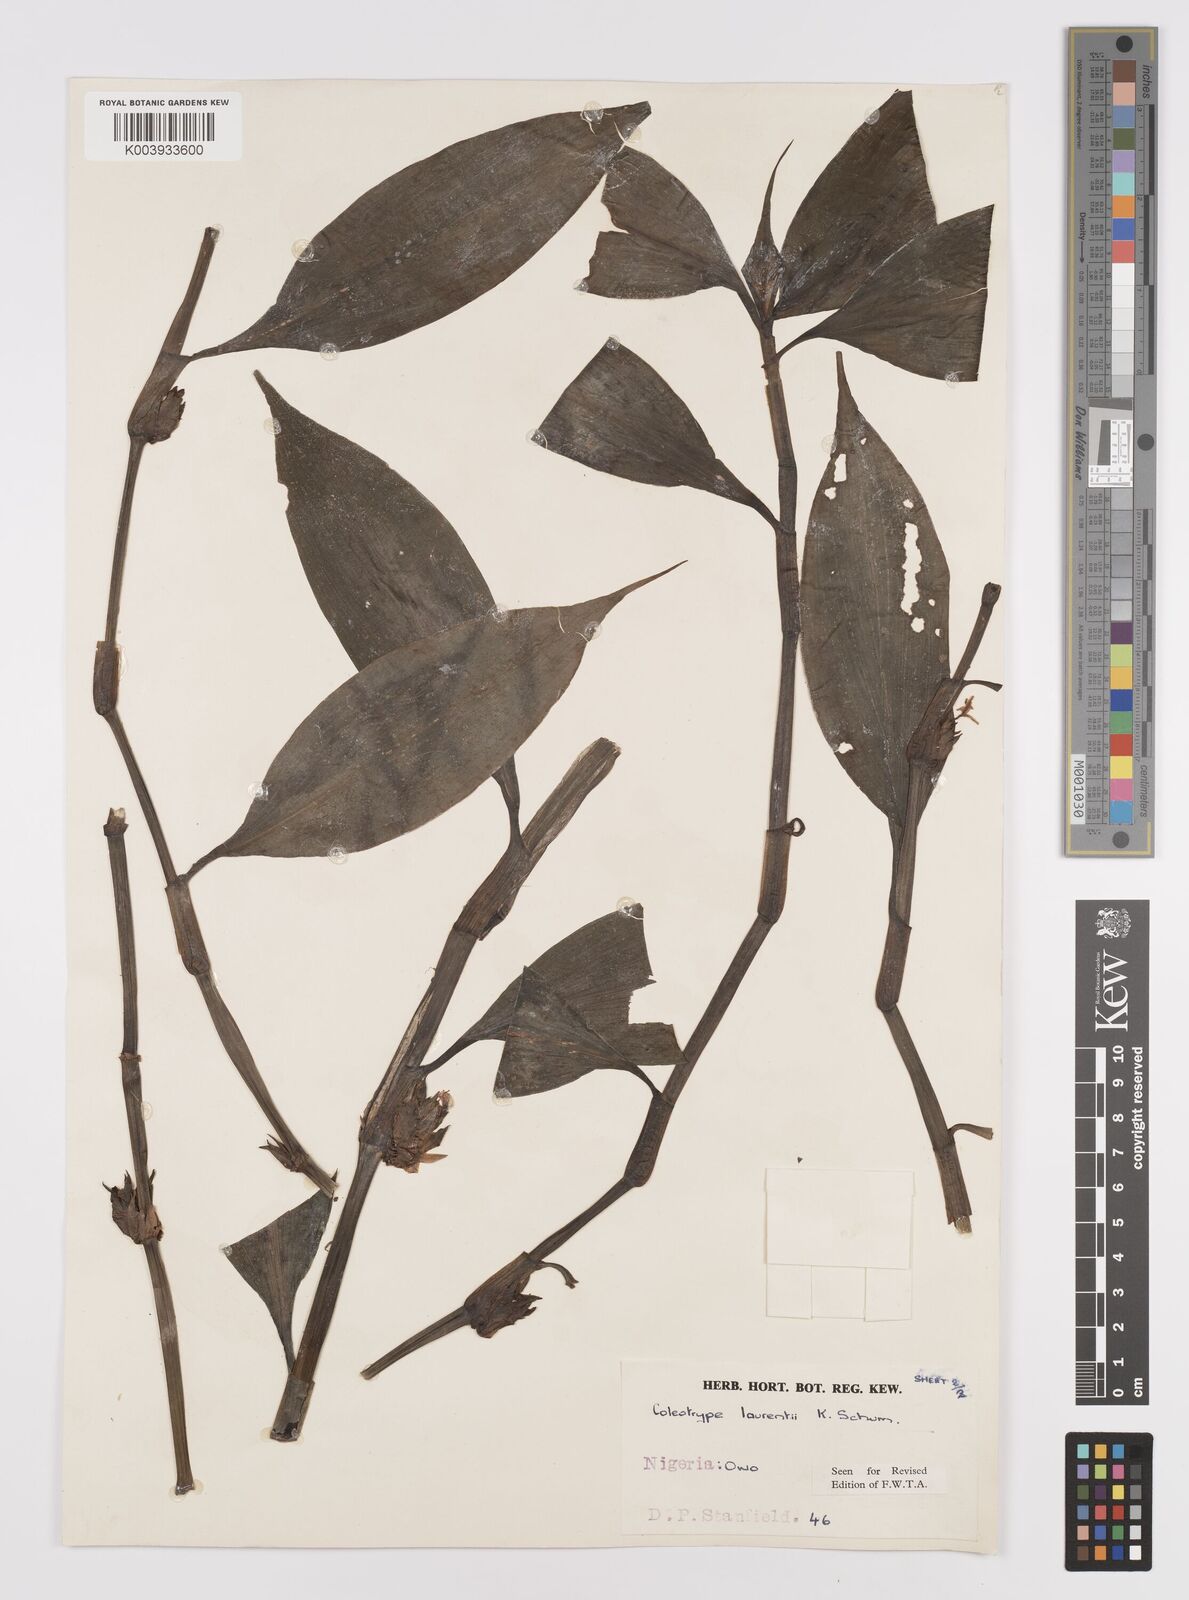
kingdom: Plantae
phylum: Tracheophyta
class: Liliopsida
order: Commelinales
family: Commelinaceae
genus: Coleotrype
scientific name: Coleotrype laurentii
